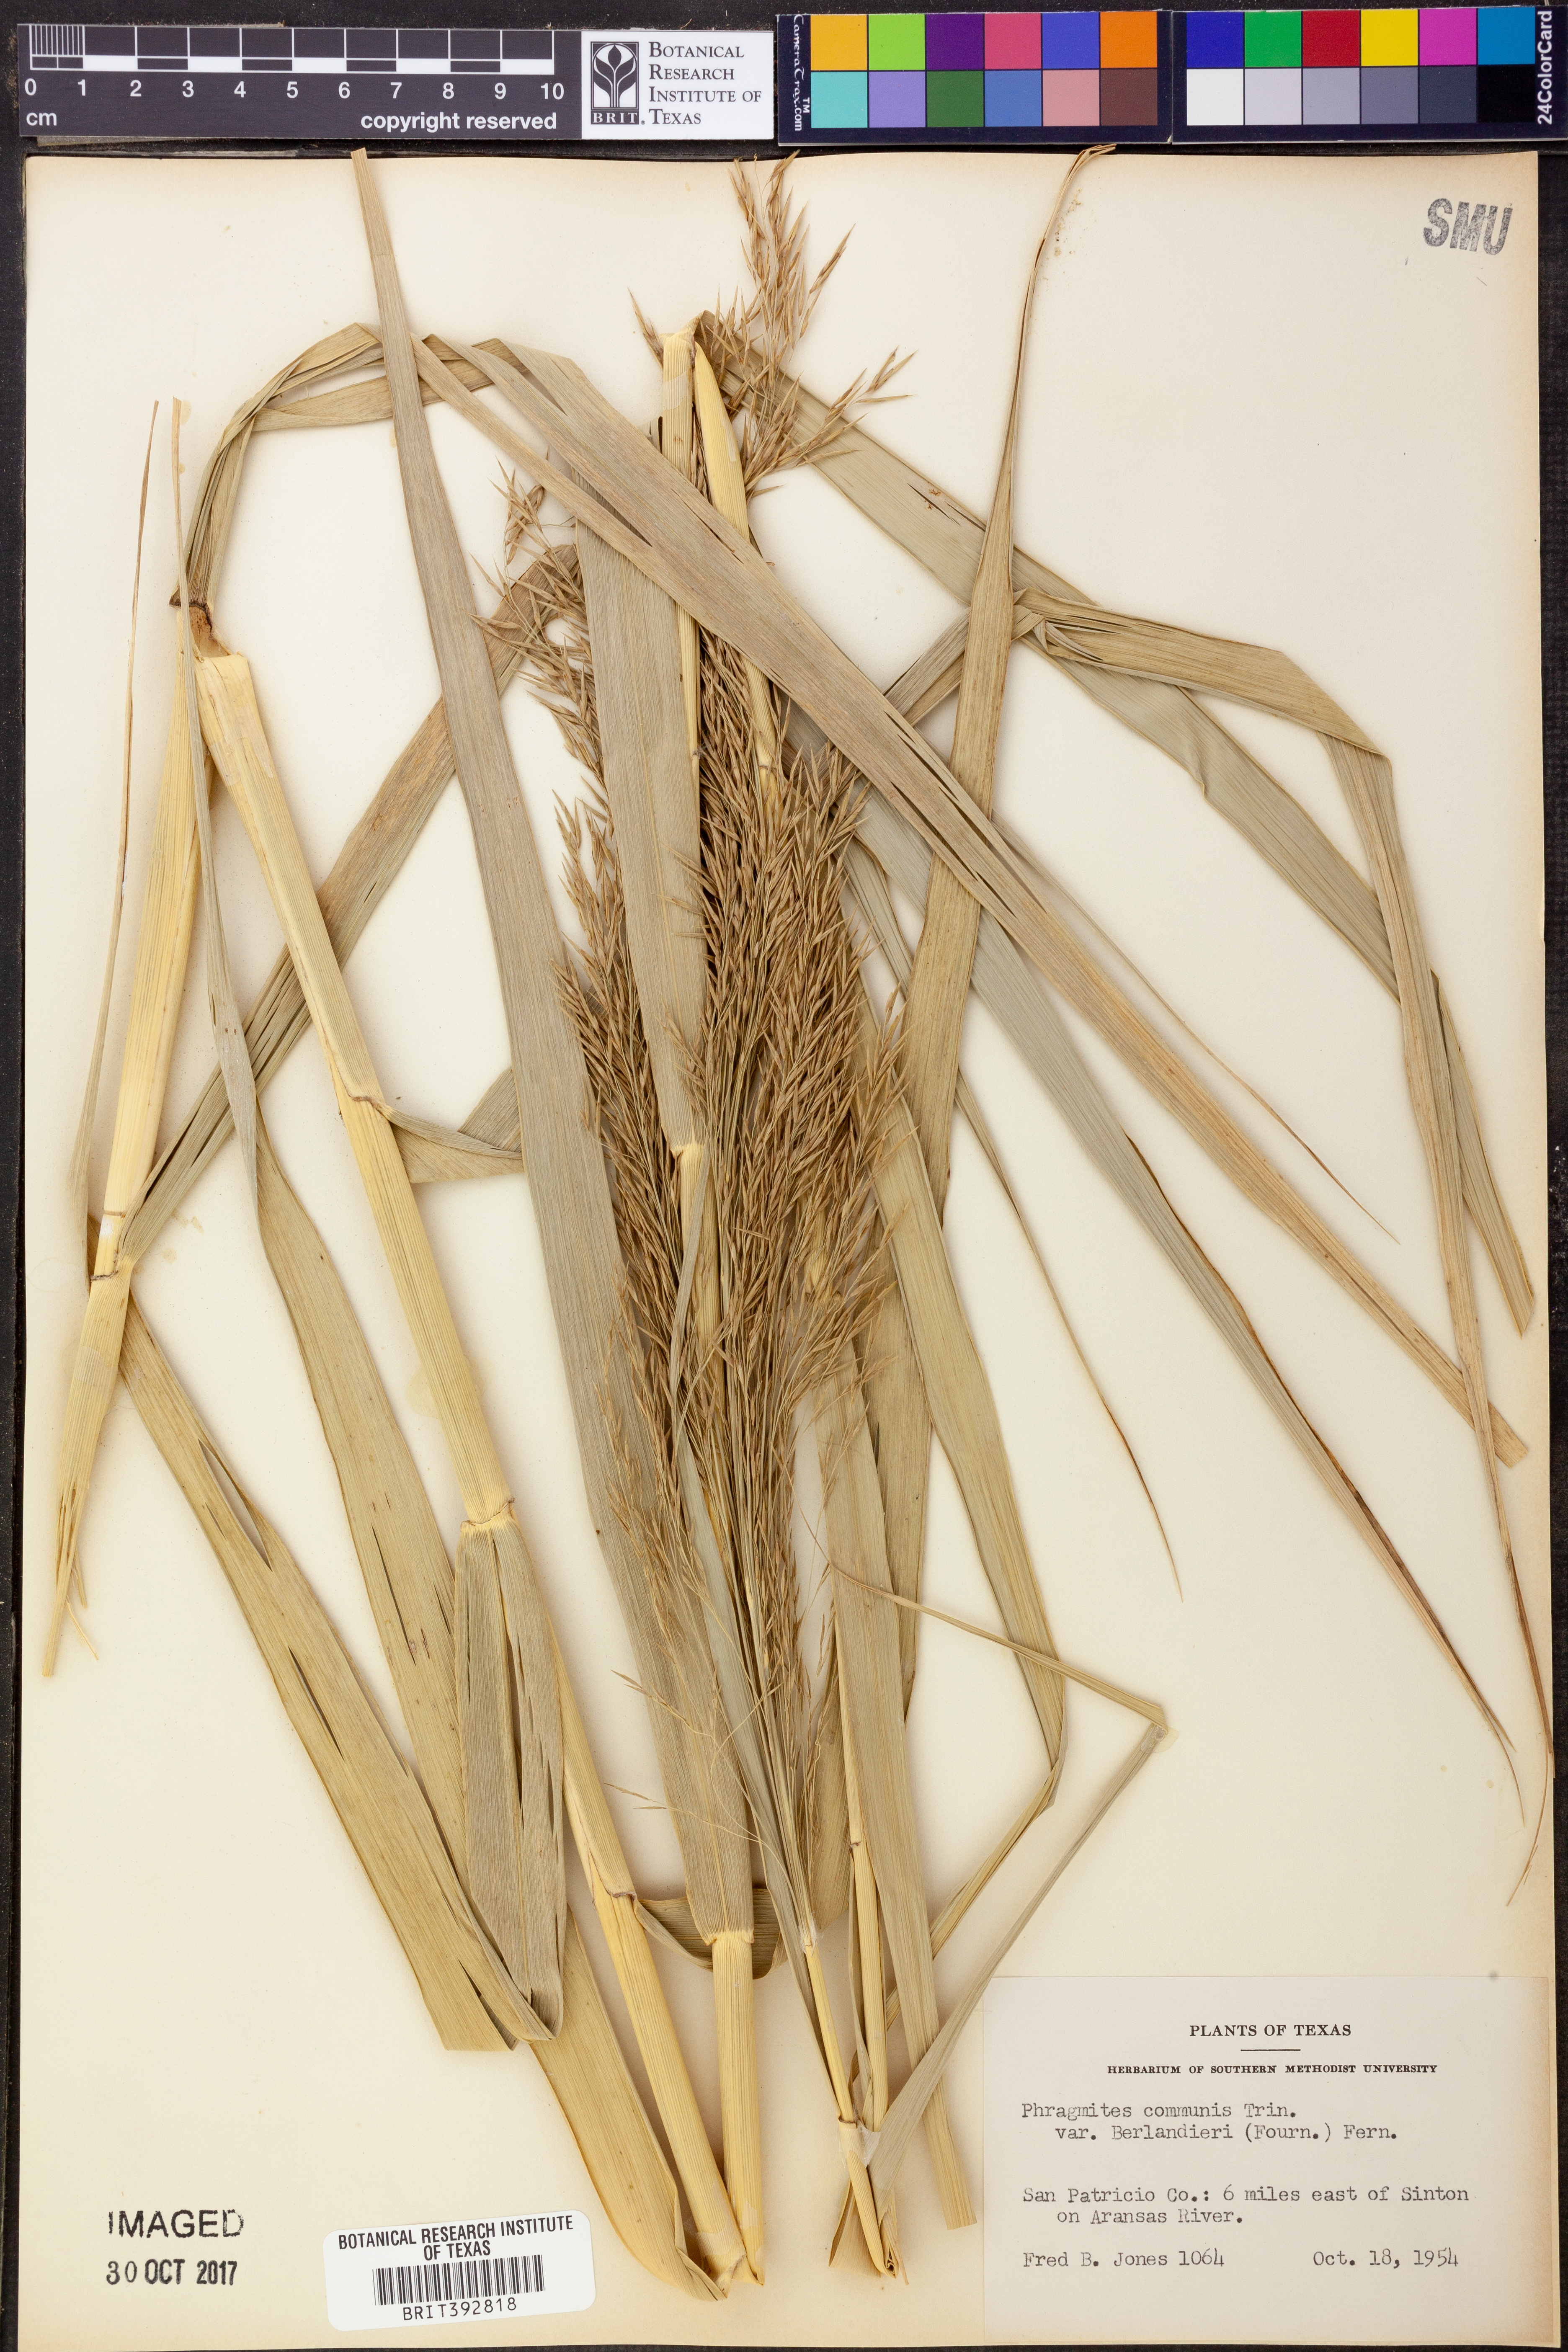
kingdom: Plantae
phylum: Tracheophyta
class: Liliopsida
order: Poales
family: Poaceae
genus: Phragmites
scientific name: Phragmites australis
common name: Common reed
